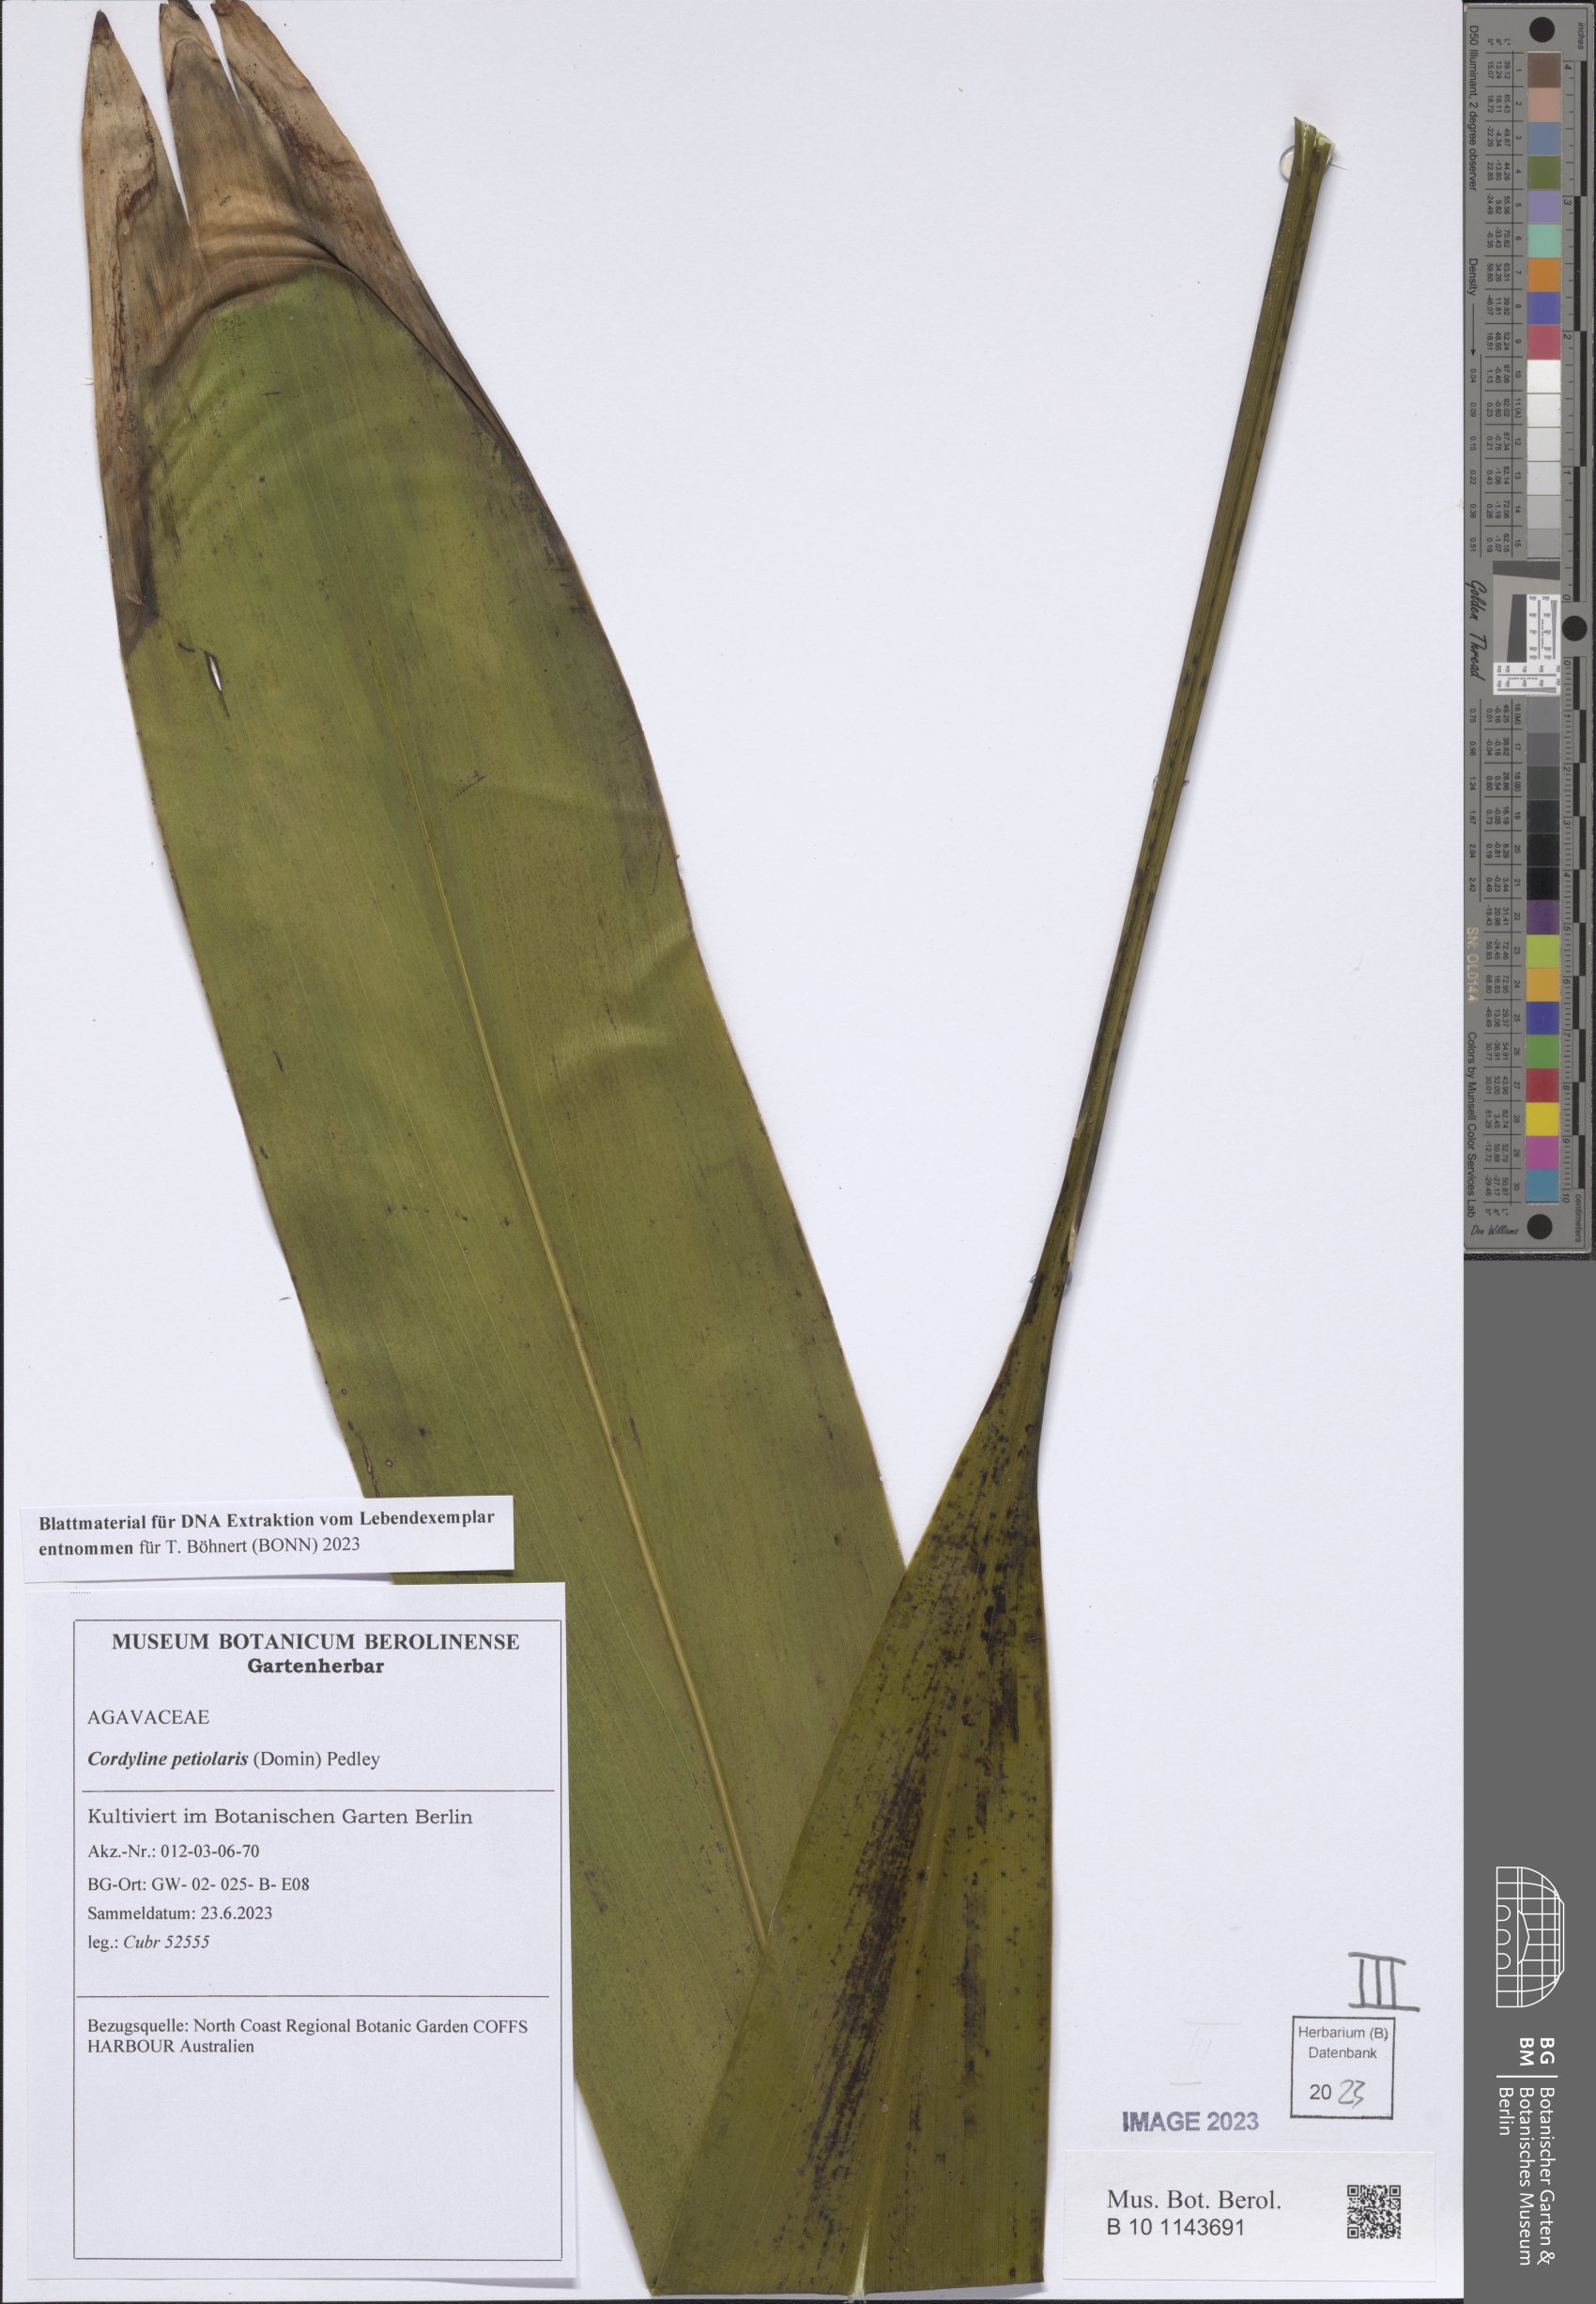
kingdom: Plantae
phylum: Tracheophyta
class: Liliopsida
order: Asparagales
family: Asparagaceae
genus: Cordyline
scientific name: Cordyline petiolaris
